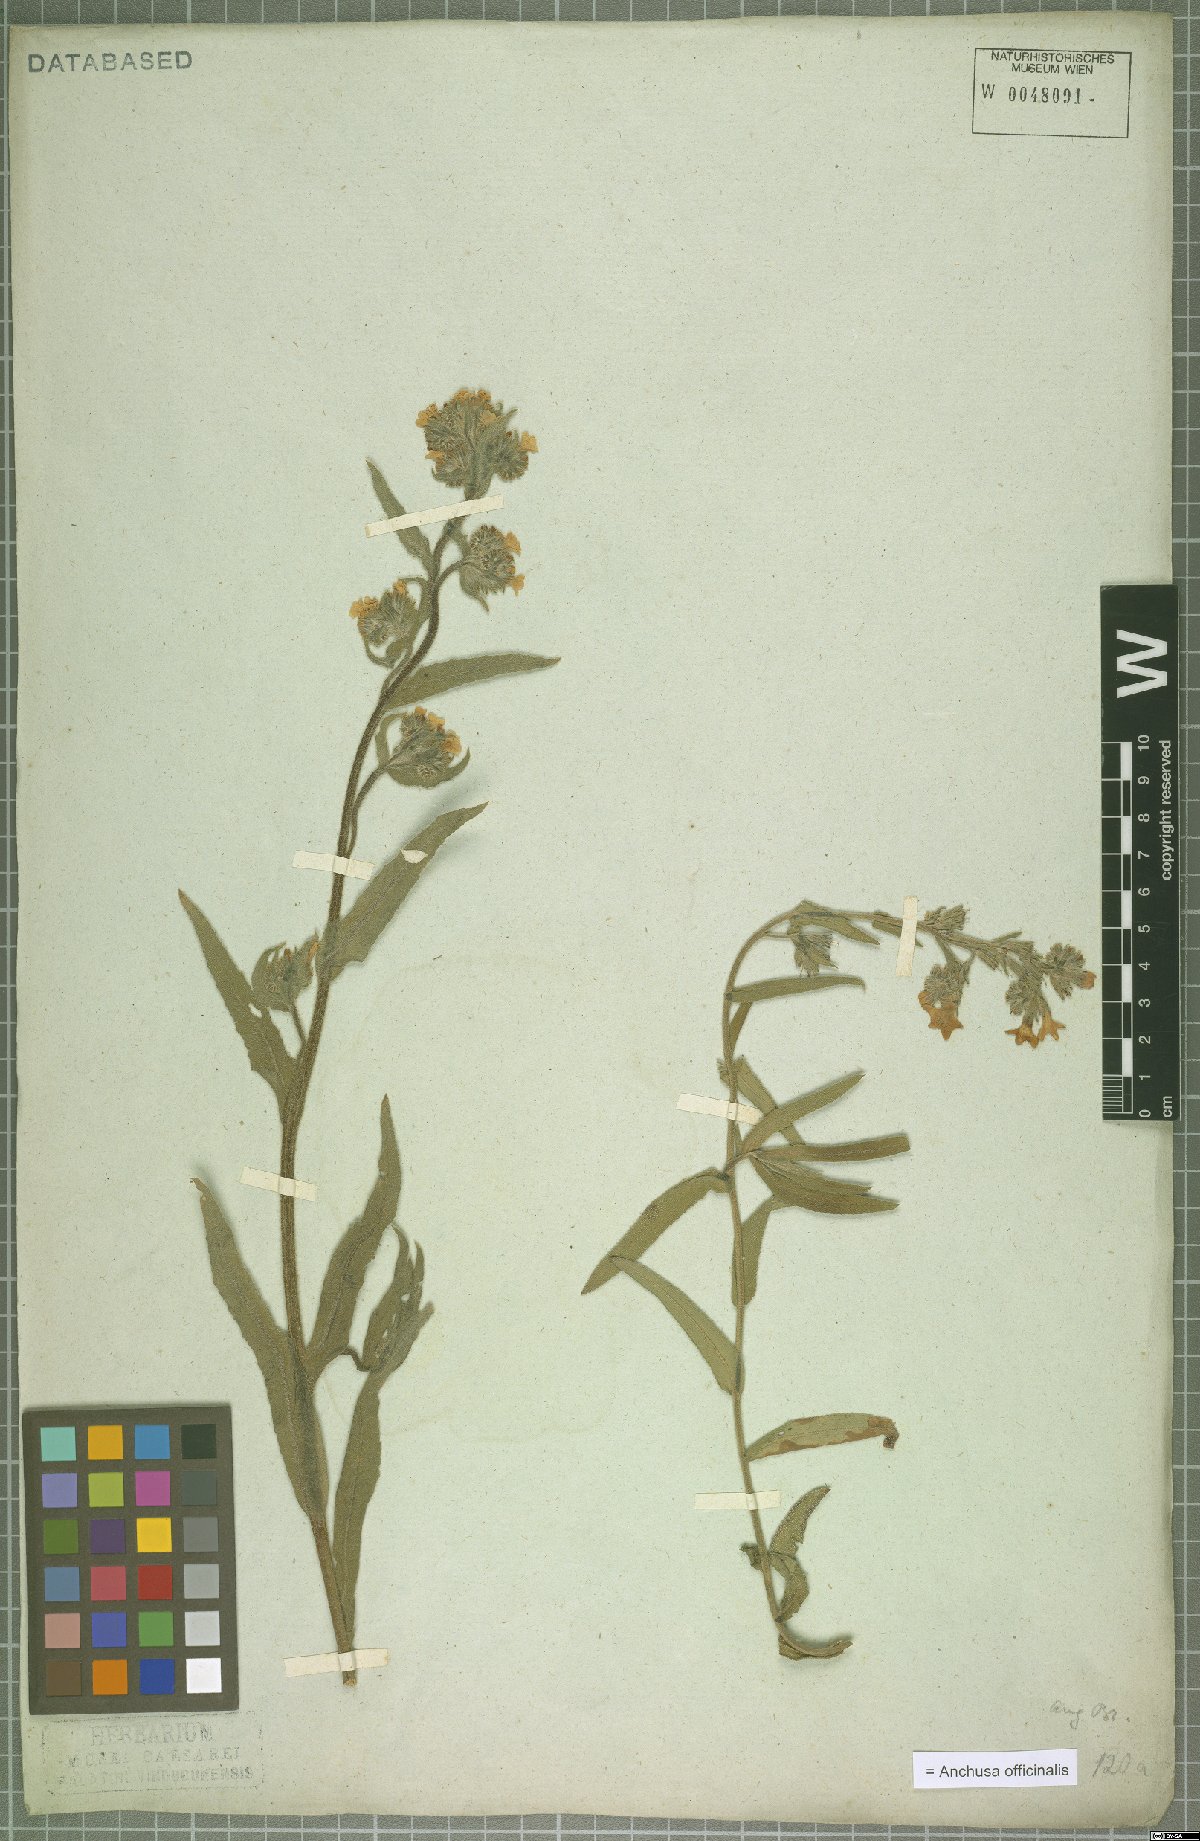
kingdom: Plantae
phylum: Tracheophyta
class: Magnoliopsida
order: Boraginales
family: Boraginaceae
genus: Anchusa
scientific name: Anchusa officinalis
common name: Alkanet
